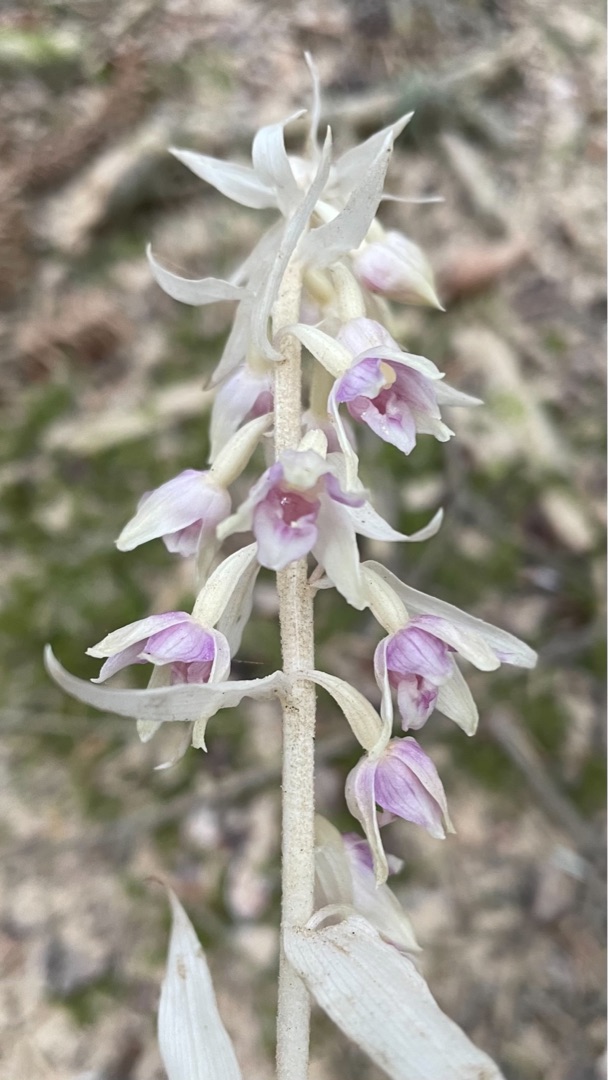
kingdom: Plantae
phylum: Tracheophyta
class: Liliopsida
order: Asparagales
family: Orchidaceae
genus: Epipactis
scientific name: Epipactis helleborine
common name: Skov-hullæbe
